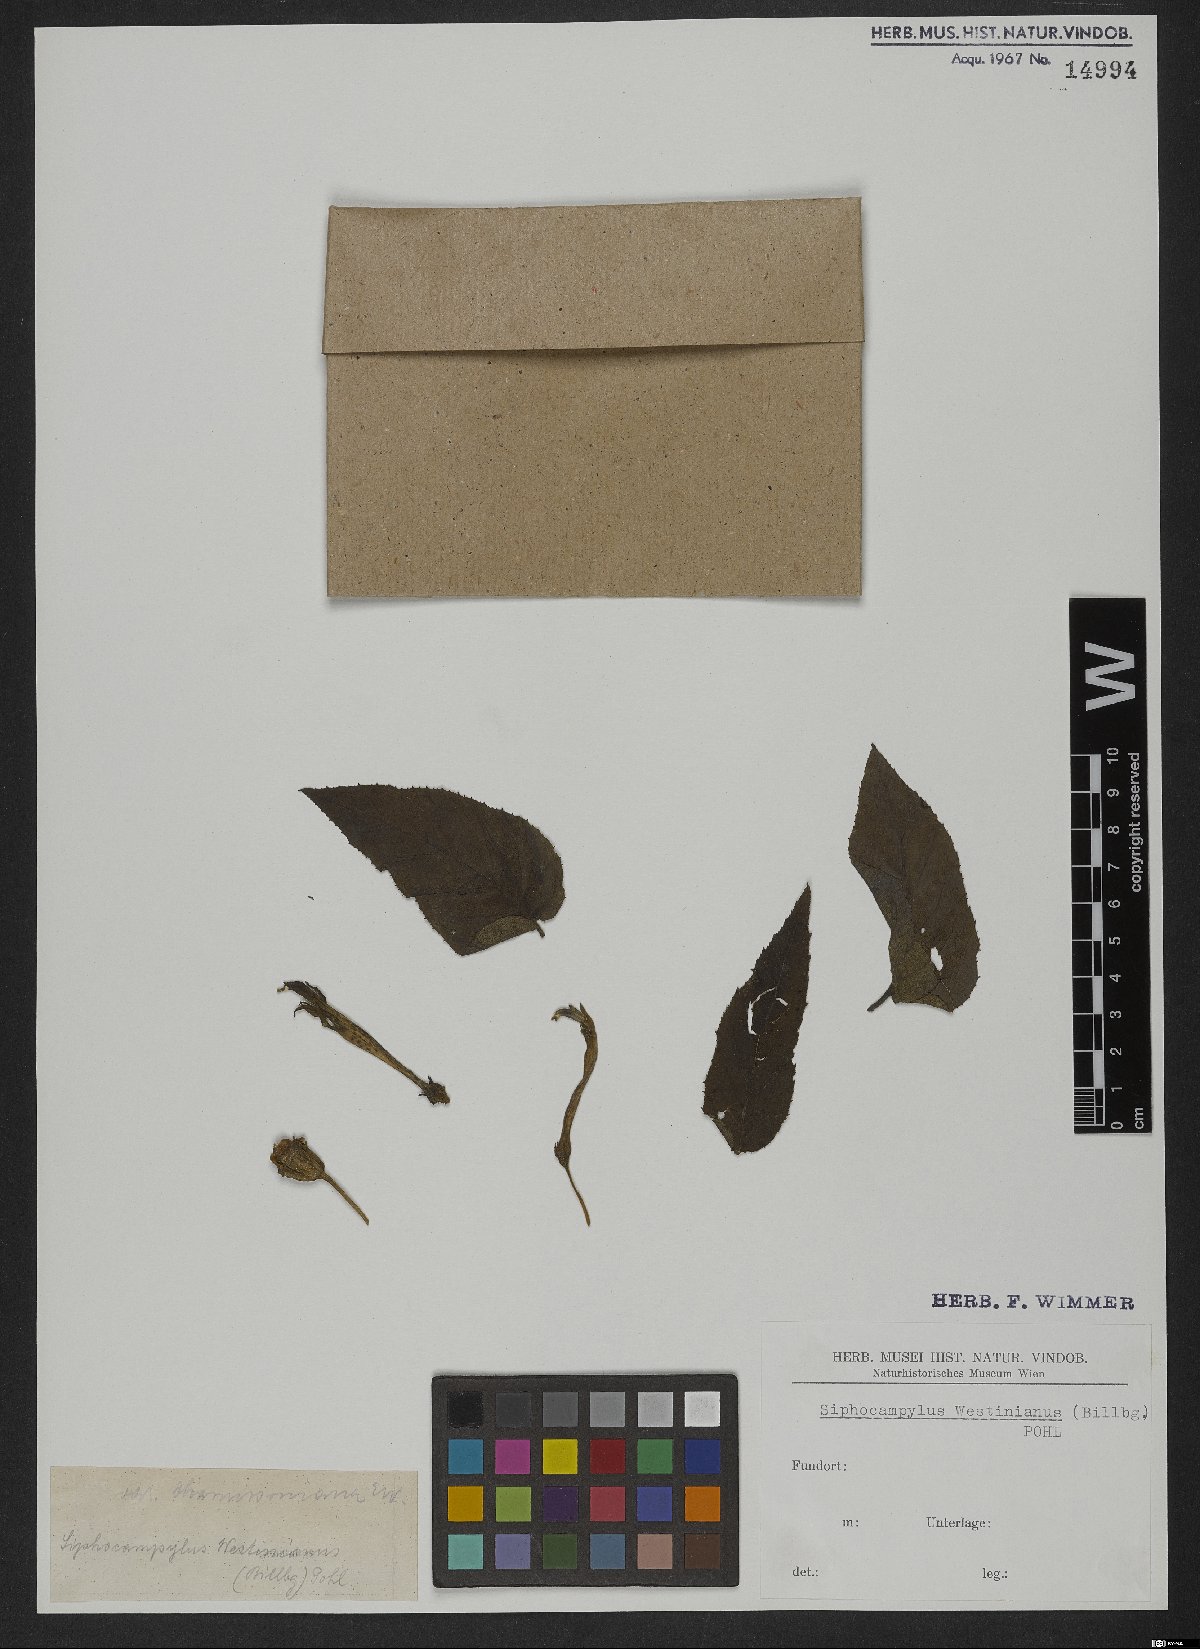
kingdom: Plantae
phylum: Tracheophyta
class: Magnoliopsida
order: Asterales
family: Campanulaceae
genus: Siphocampylus
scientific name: Siphocampylus westinianus
